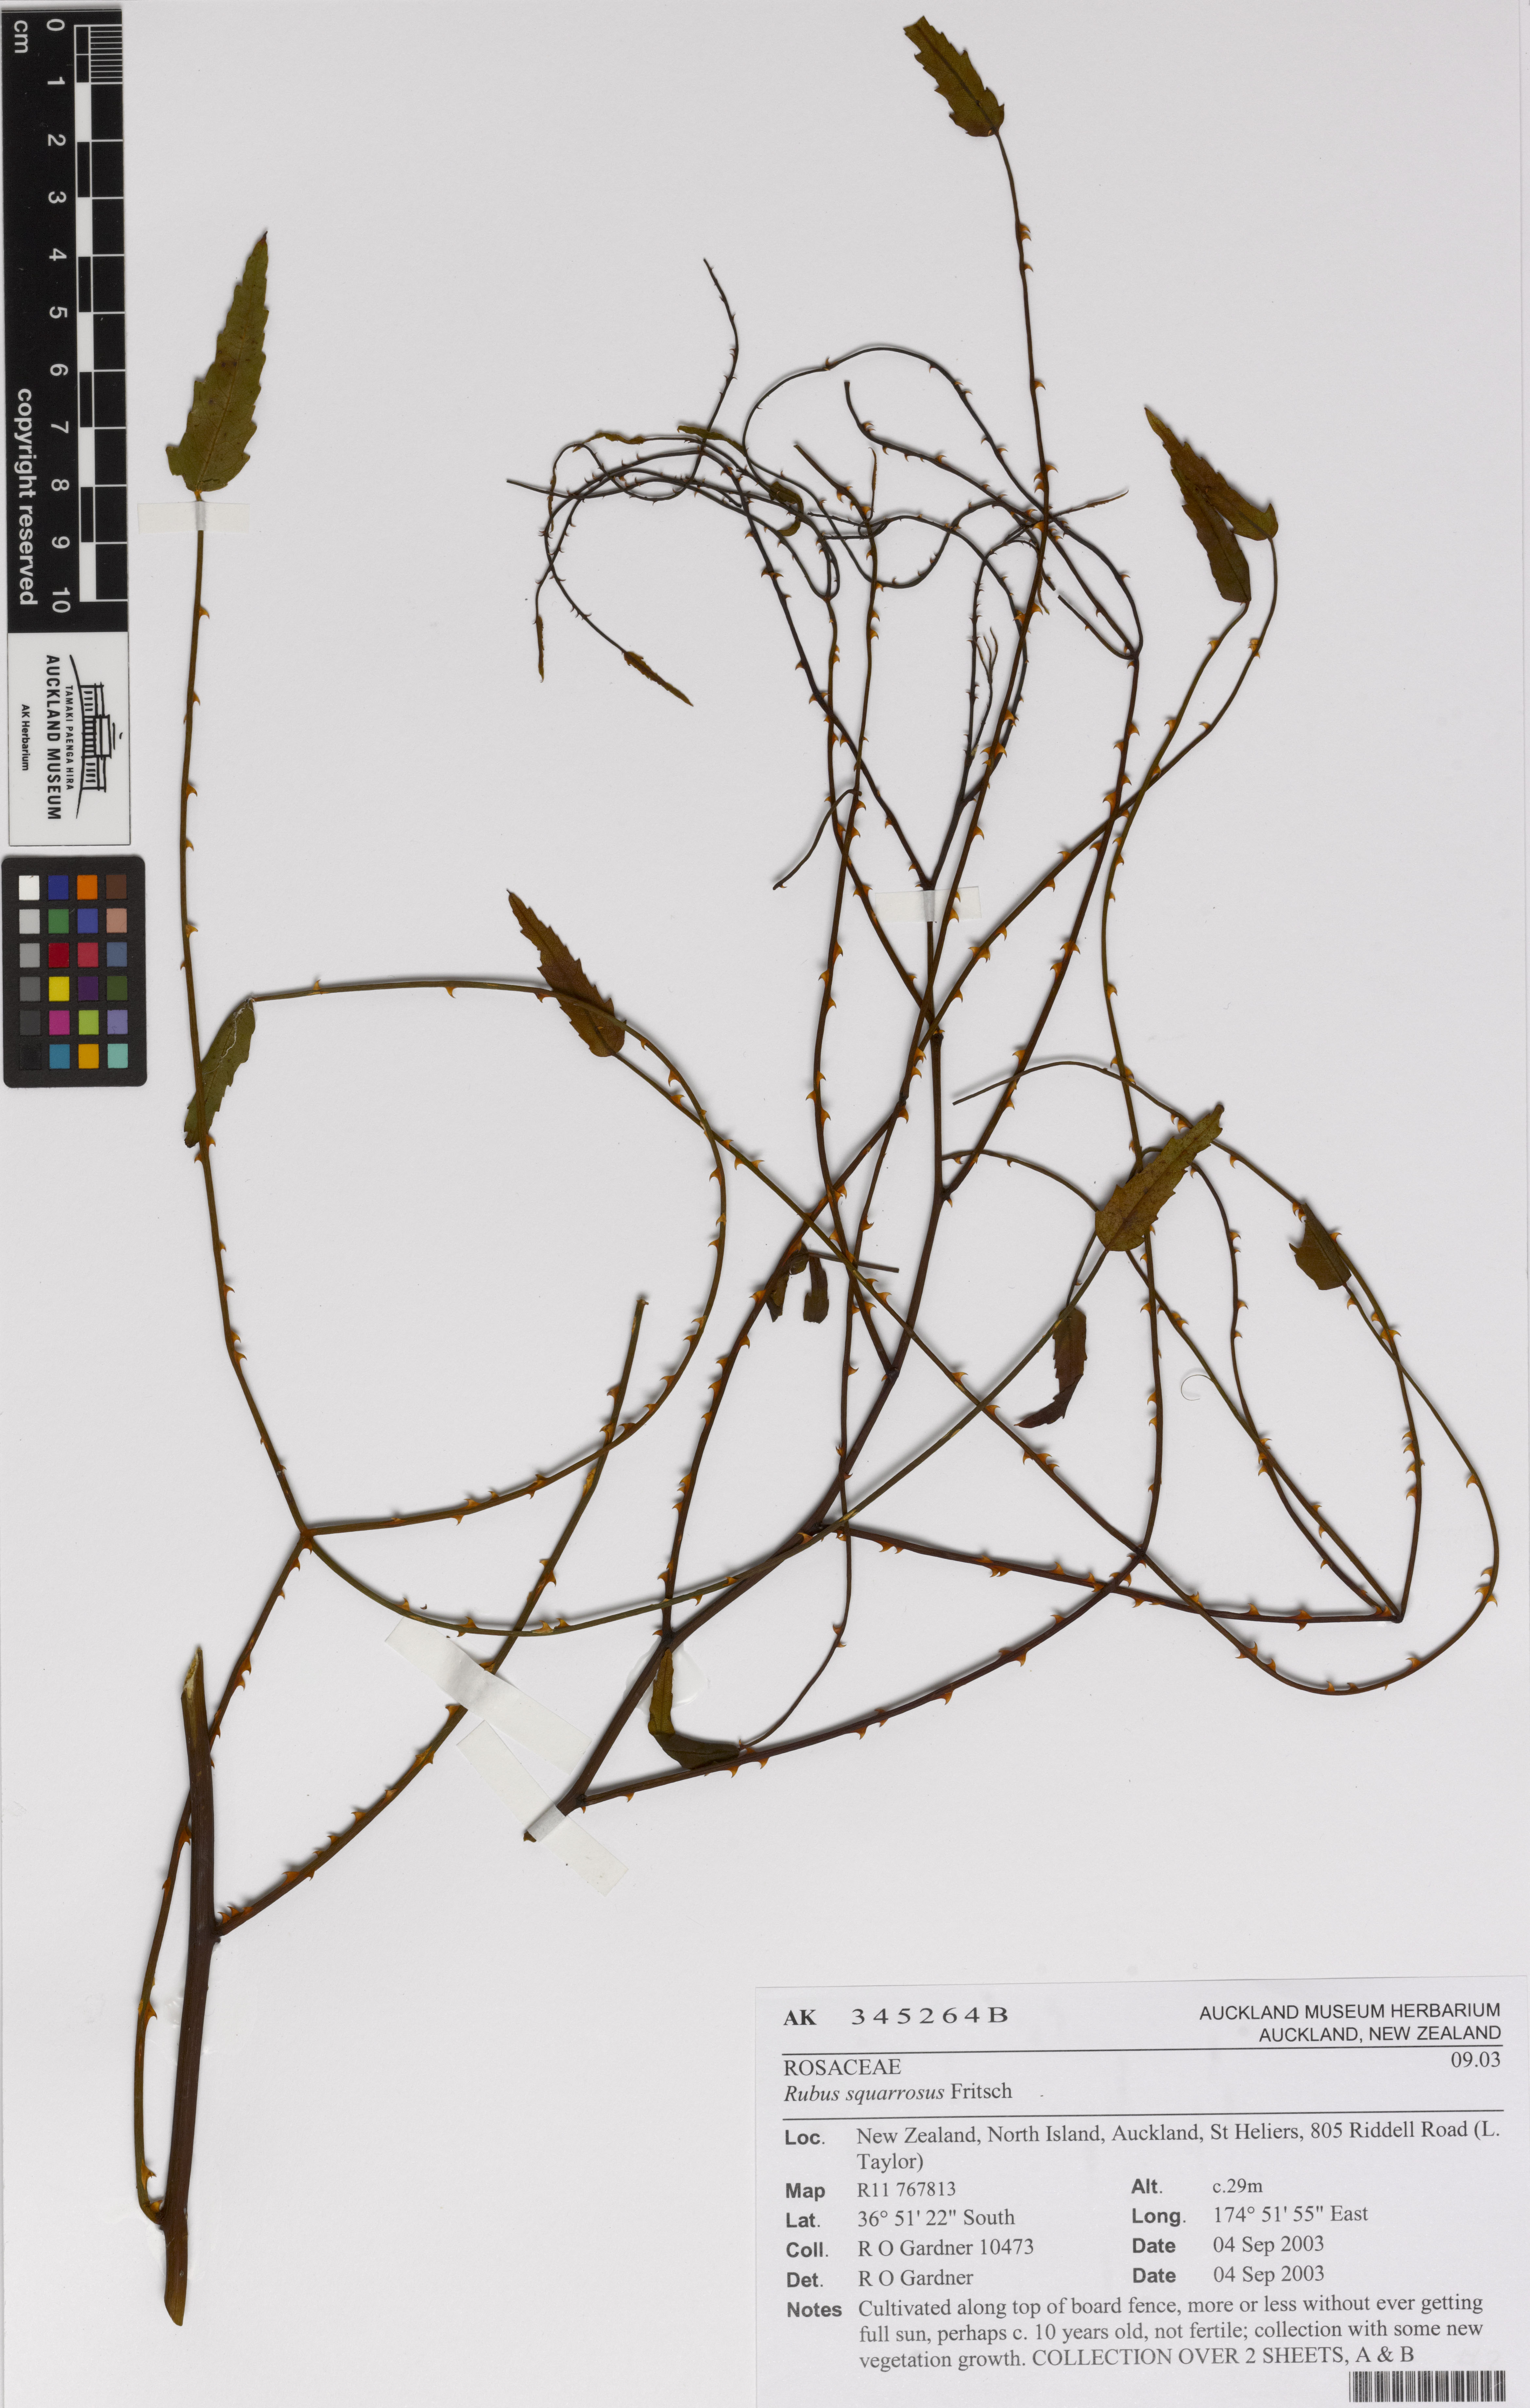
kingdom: Plantae
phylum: Tracheophyta
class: Magnoliopsida
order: Rosales
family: Rosaceae
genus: Rubus
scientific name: Rubus squarrosus
